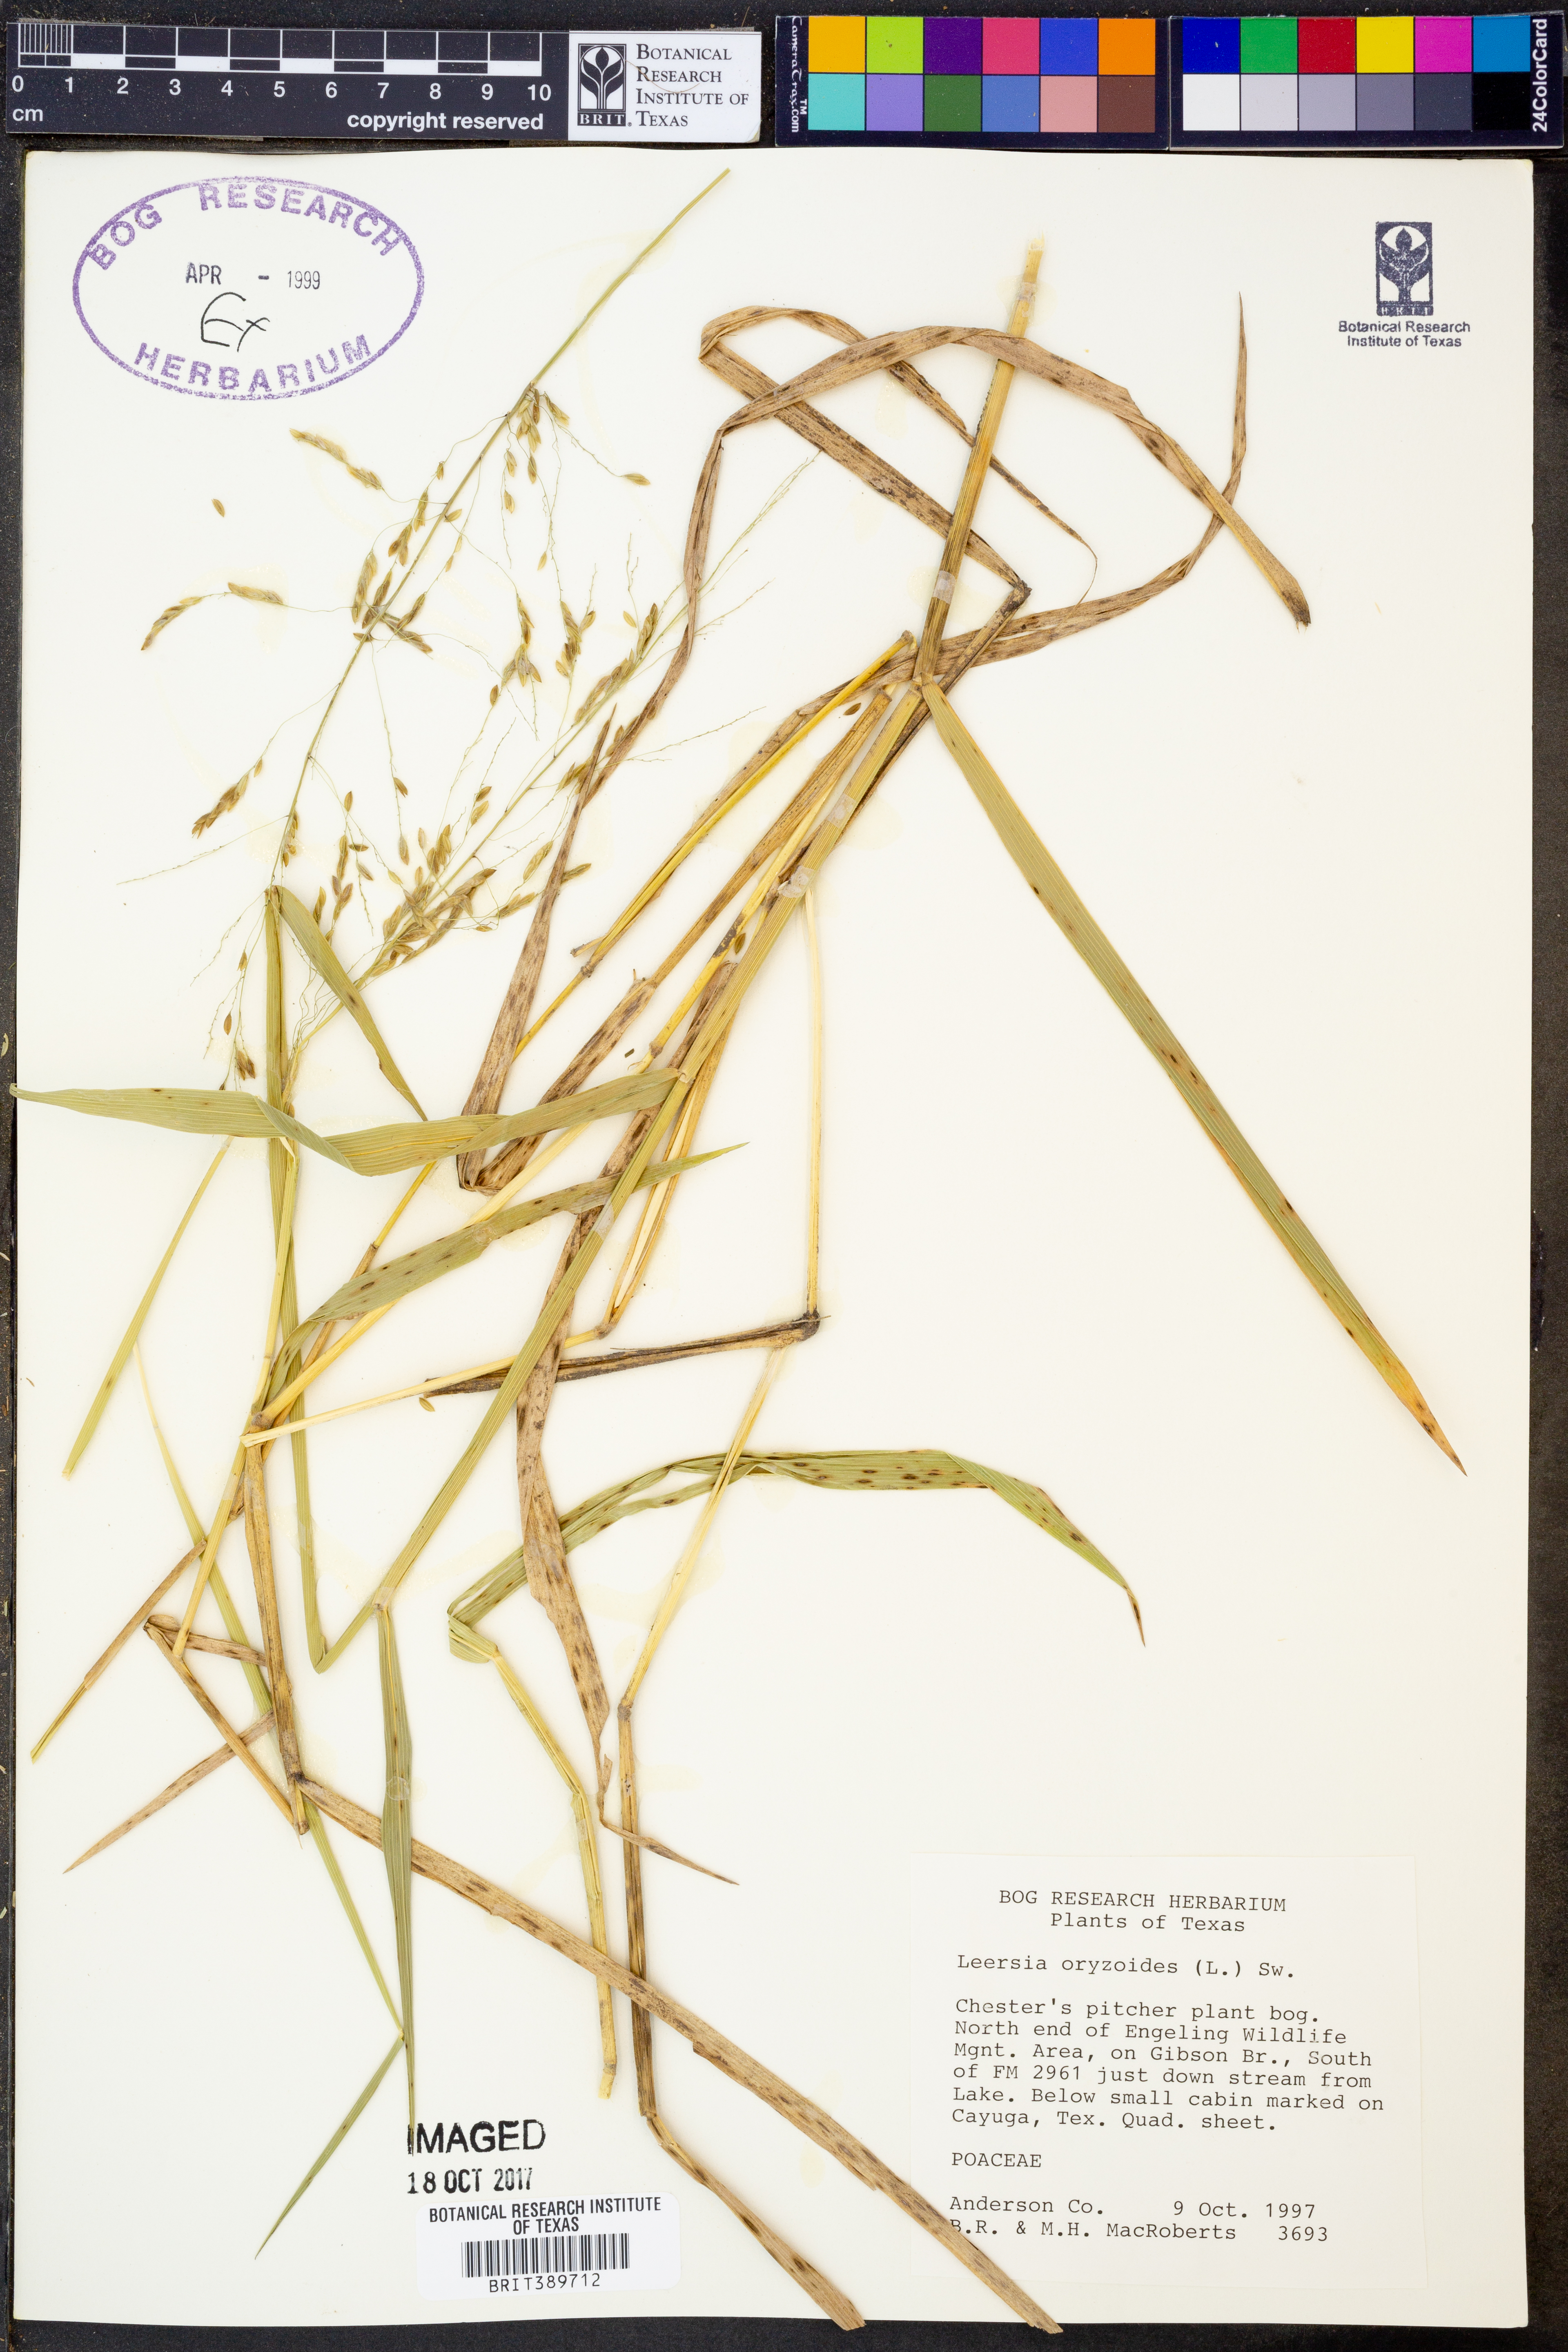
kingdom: Plantae
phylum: Tracheophyta
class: Liliopsida
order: Poales
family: Poaceae
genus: Leersia
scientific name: Leersia oryzoides
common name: Cut-grass
